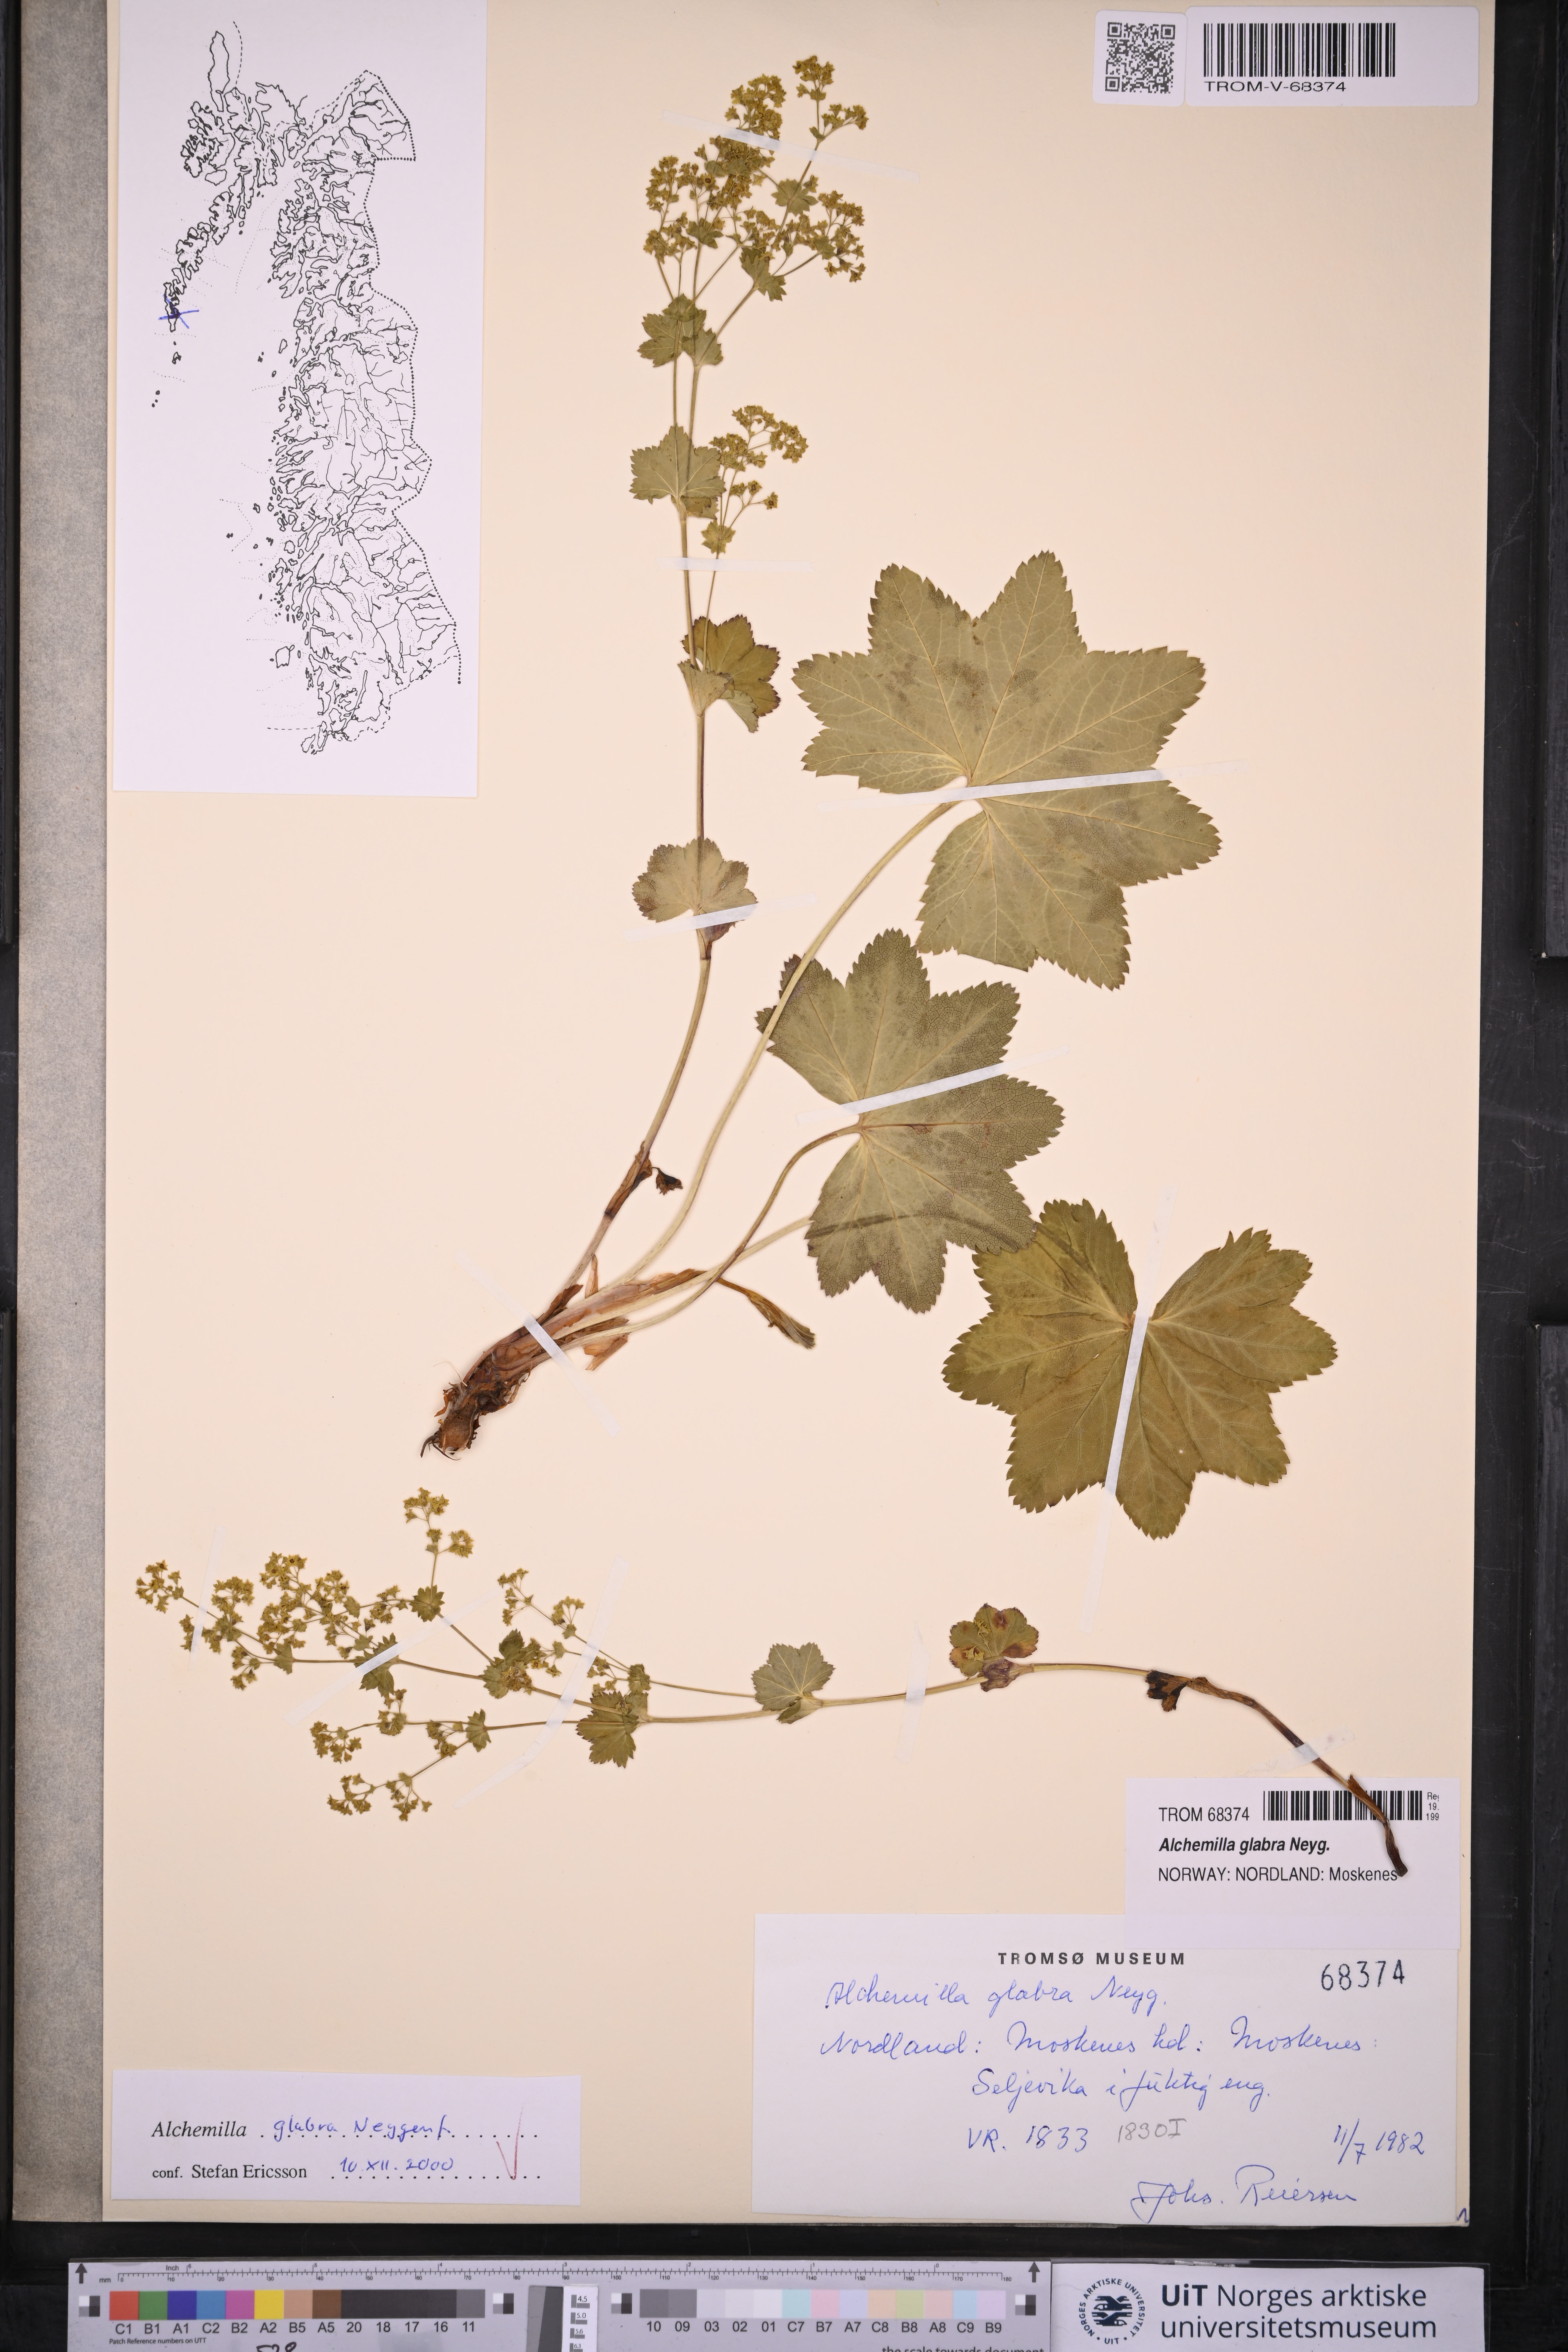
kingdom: Plantae
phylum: Tracheophyta
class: Magnoliopsida
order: Rosales
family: Rosaceae
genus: Alchemilla
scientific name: Alchemilla glabra
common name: Smooth lady's-mantle
